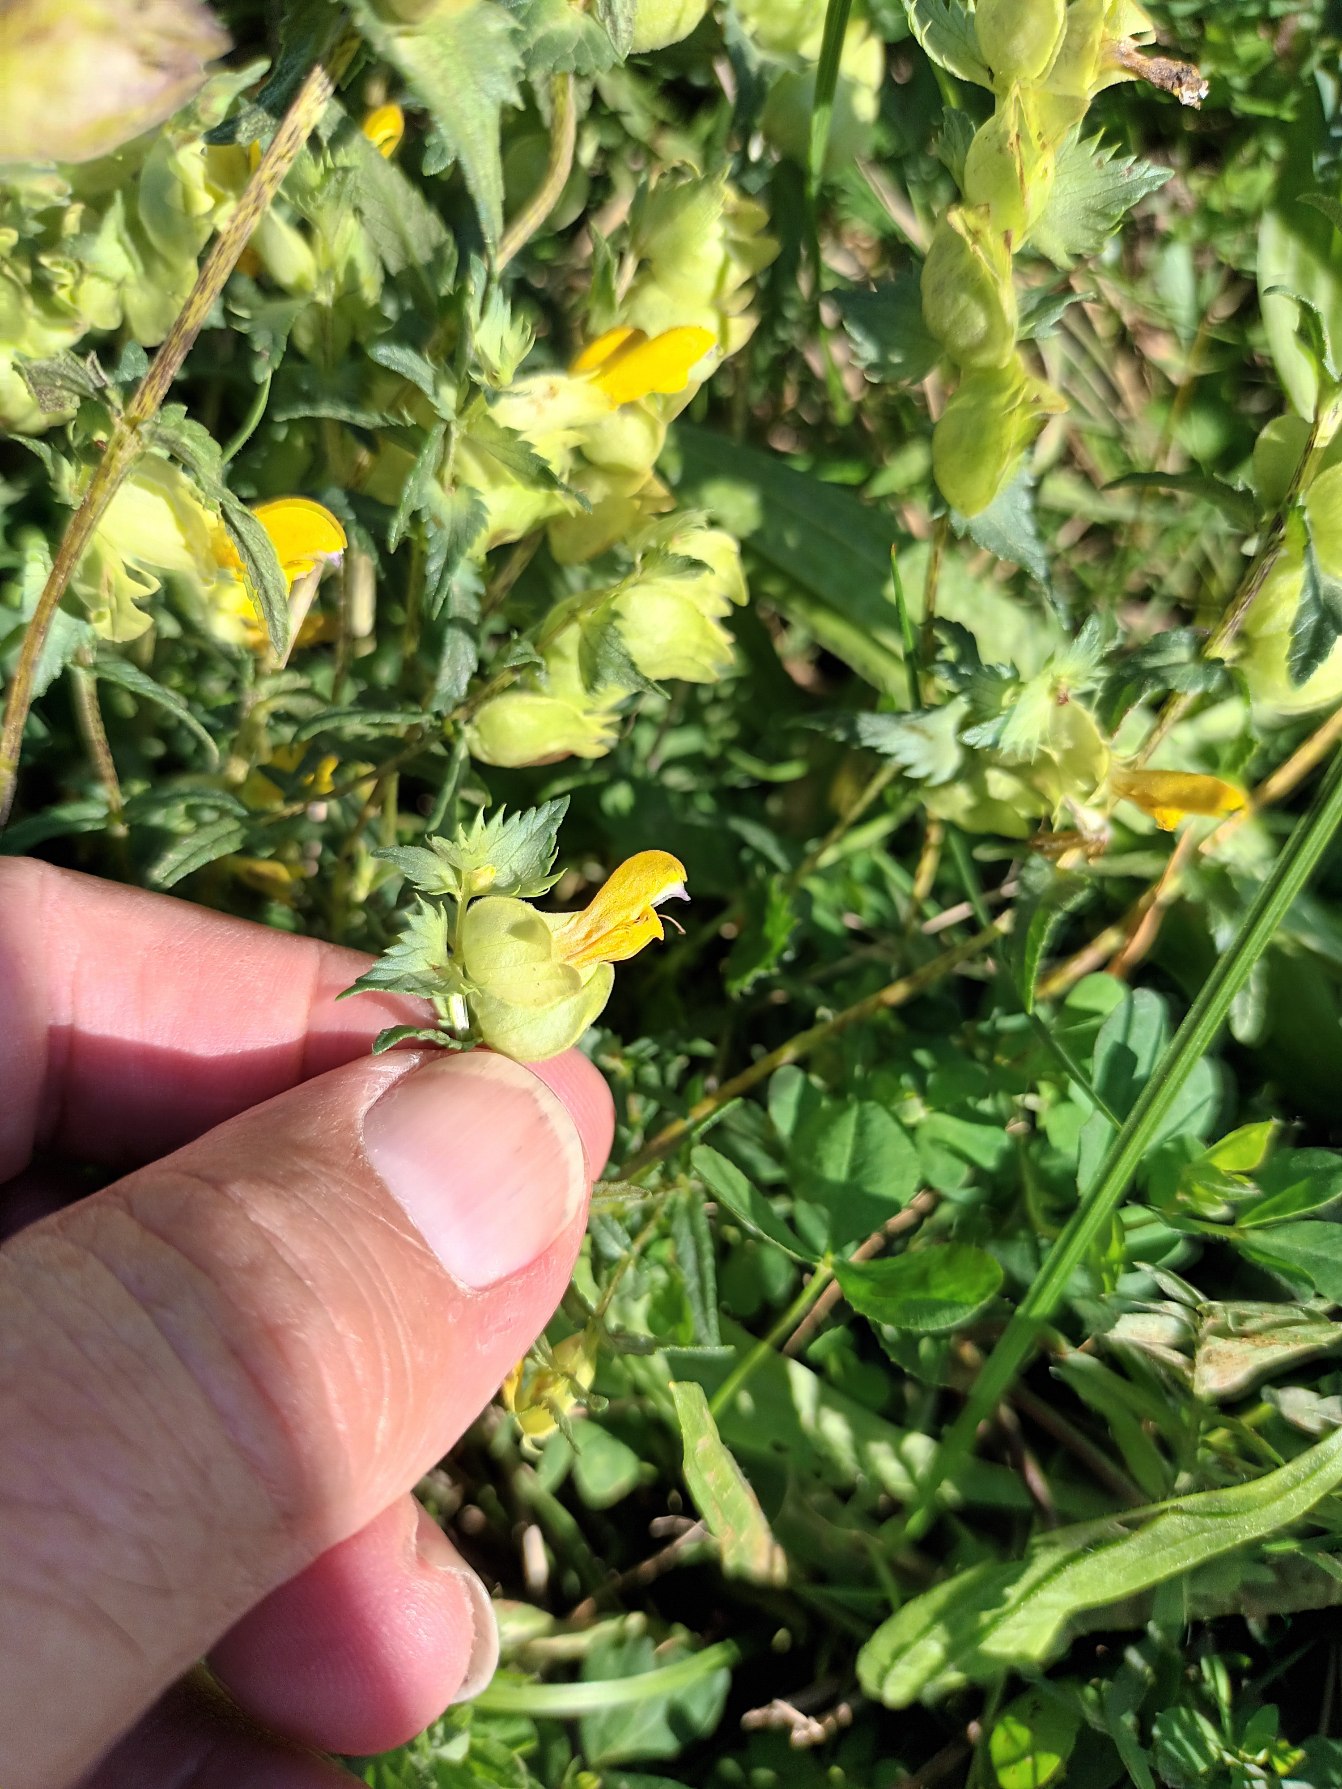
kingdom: Plantae
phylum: Tracheophyta
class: Magnoliopsida
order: Lamiales
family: Orobanchaceae
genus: Rhinanthus
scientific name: Rhinanthus
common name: Stor skjaller
